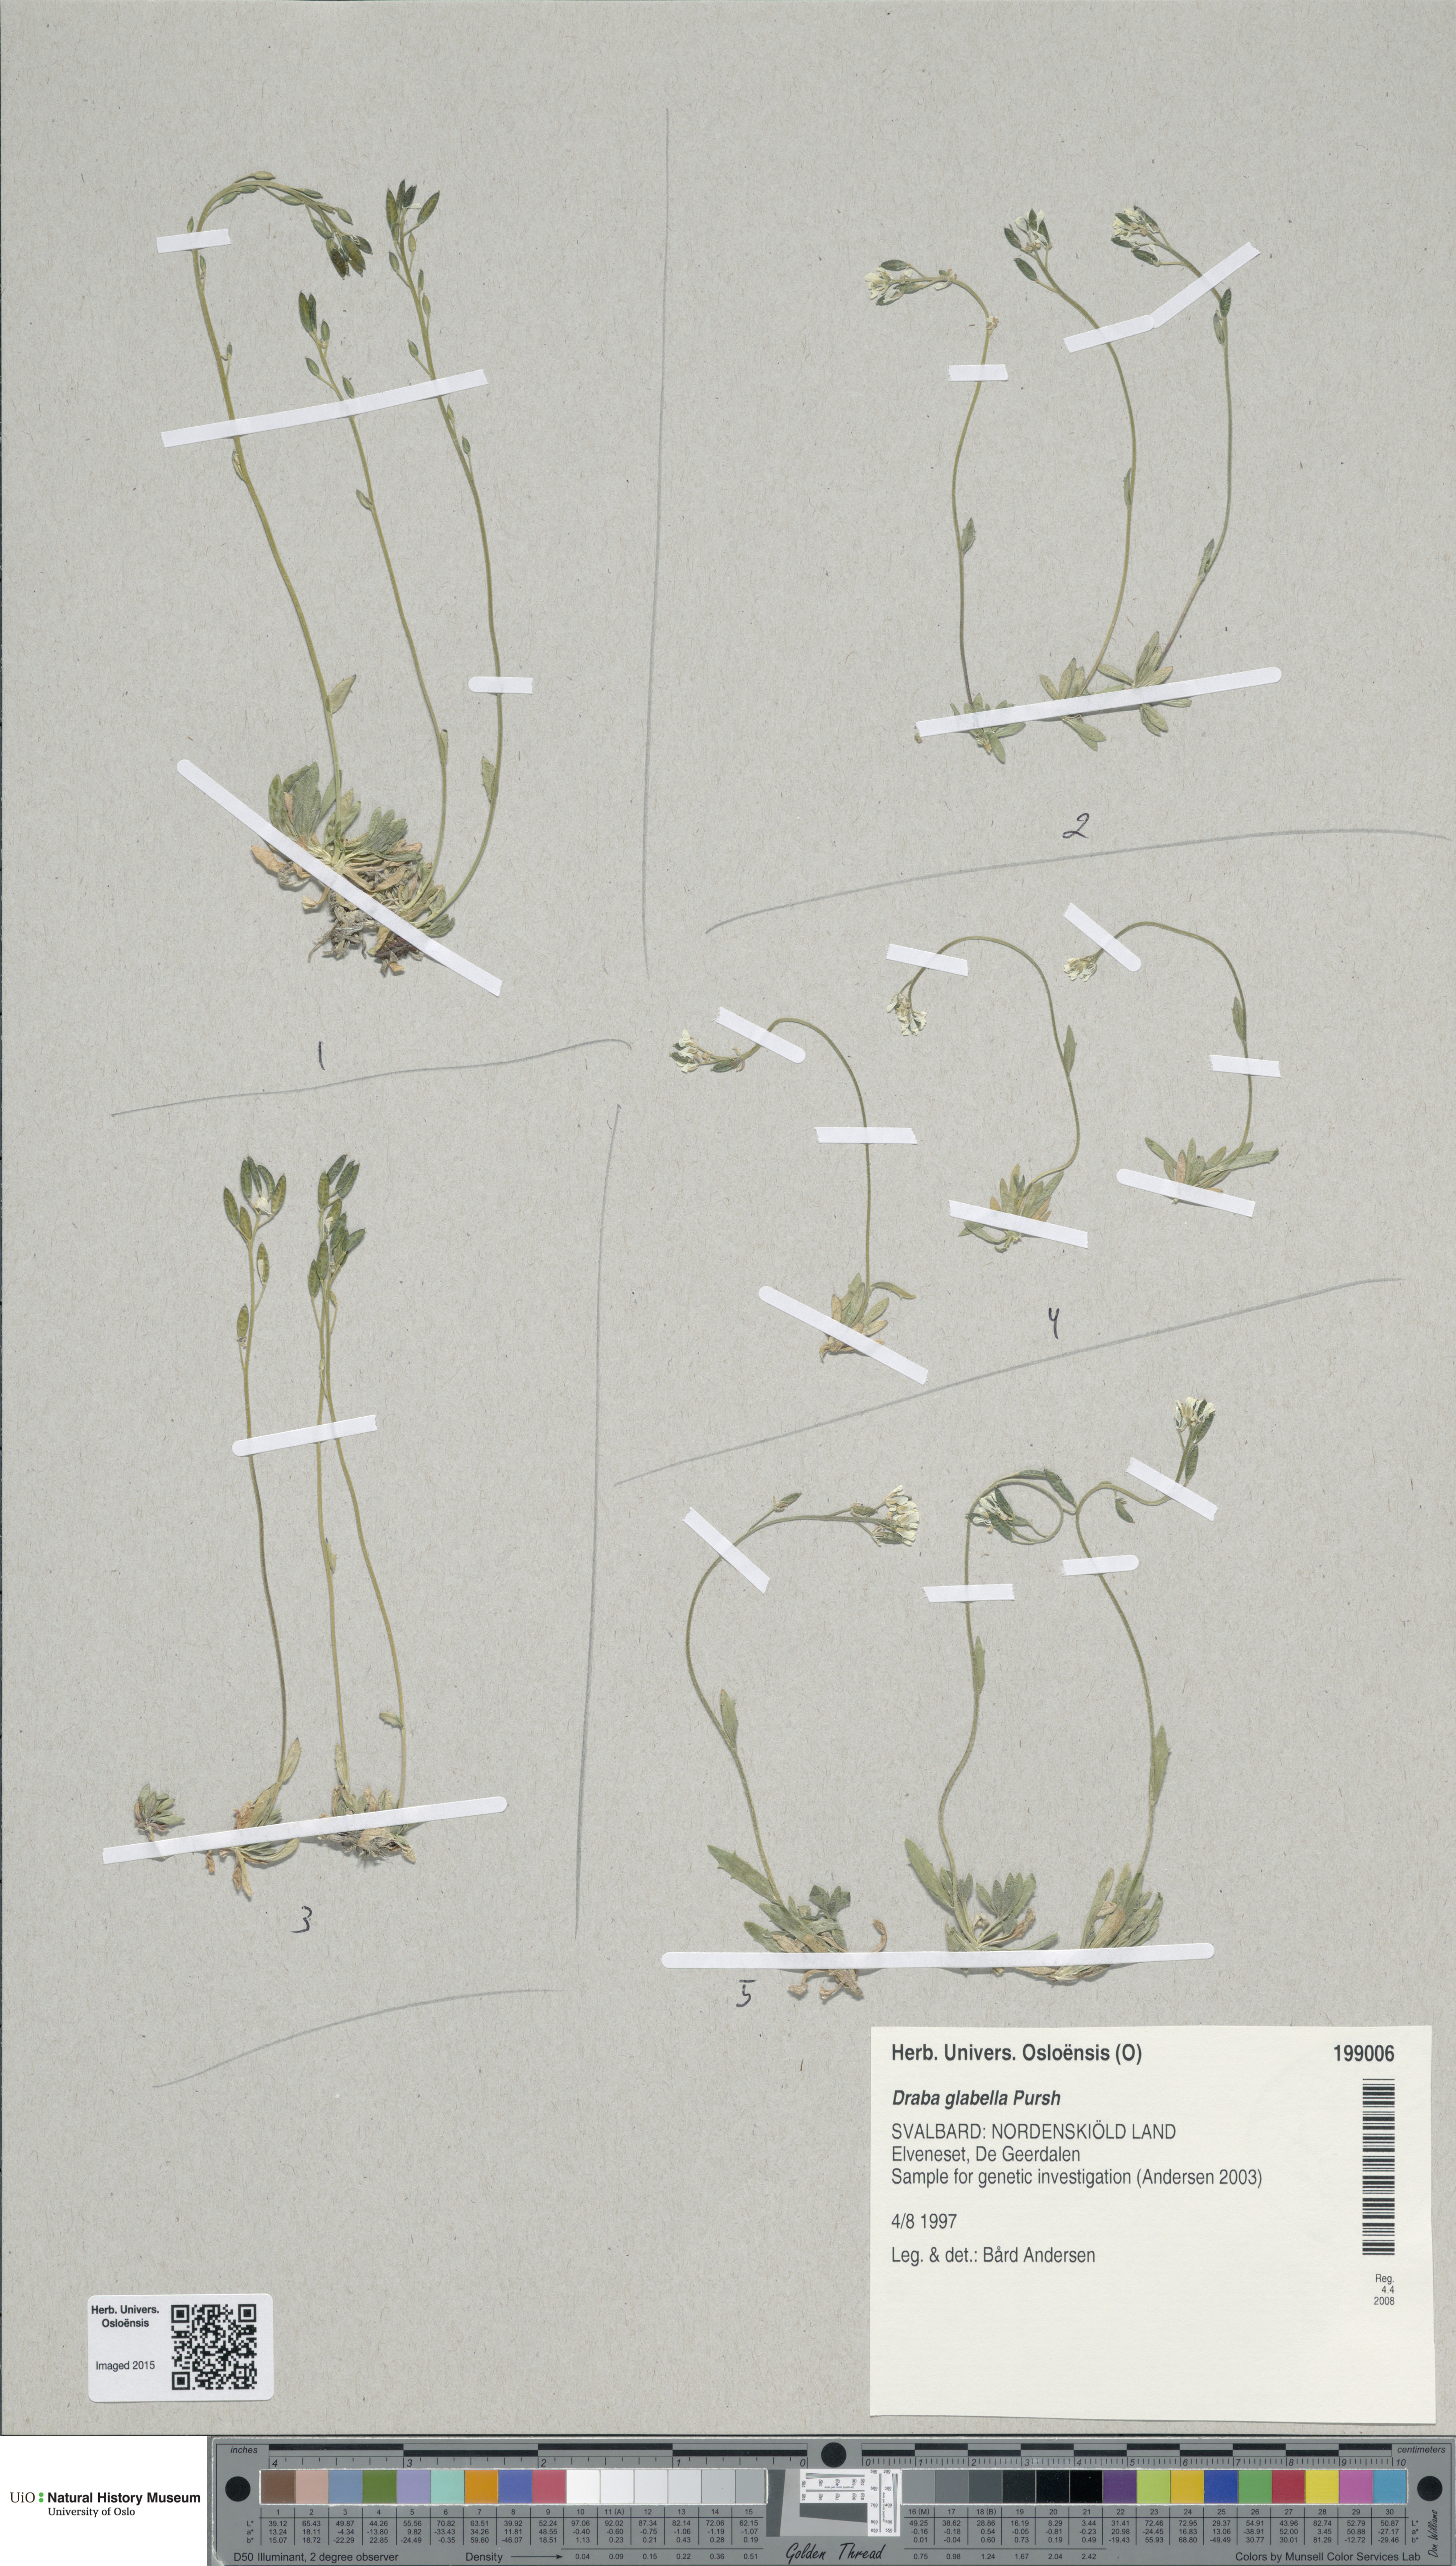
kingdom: Plantae
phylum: Tracheophyta
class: Magnoliopsida
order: Brassicales
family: Brassicaceae
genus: Draba
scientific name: Draba glabella
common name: Glaucous draba
